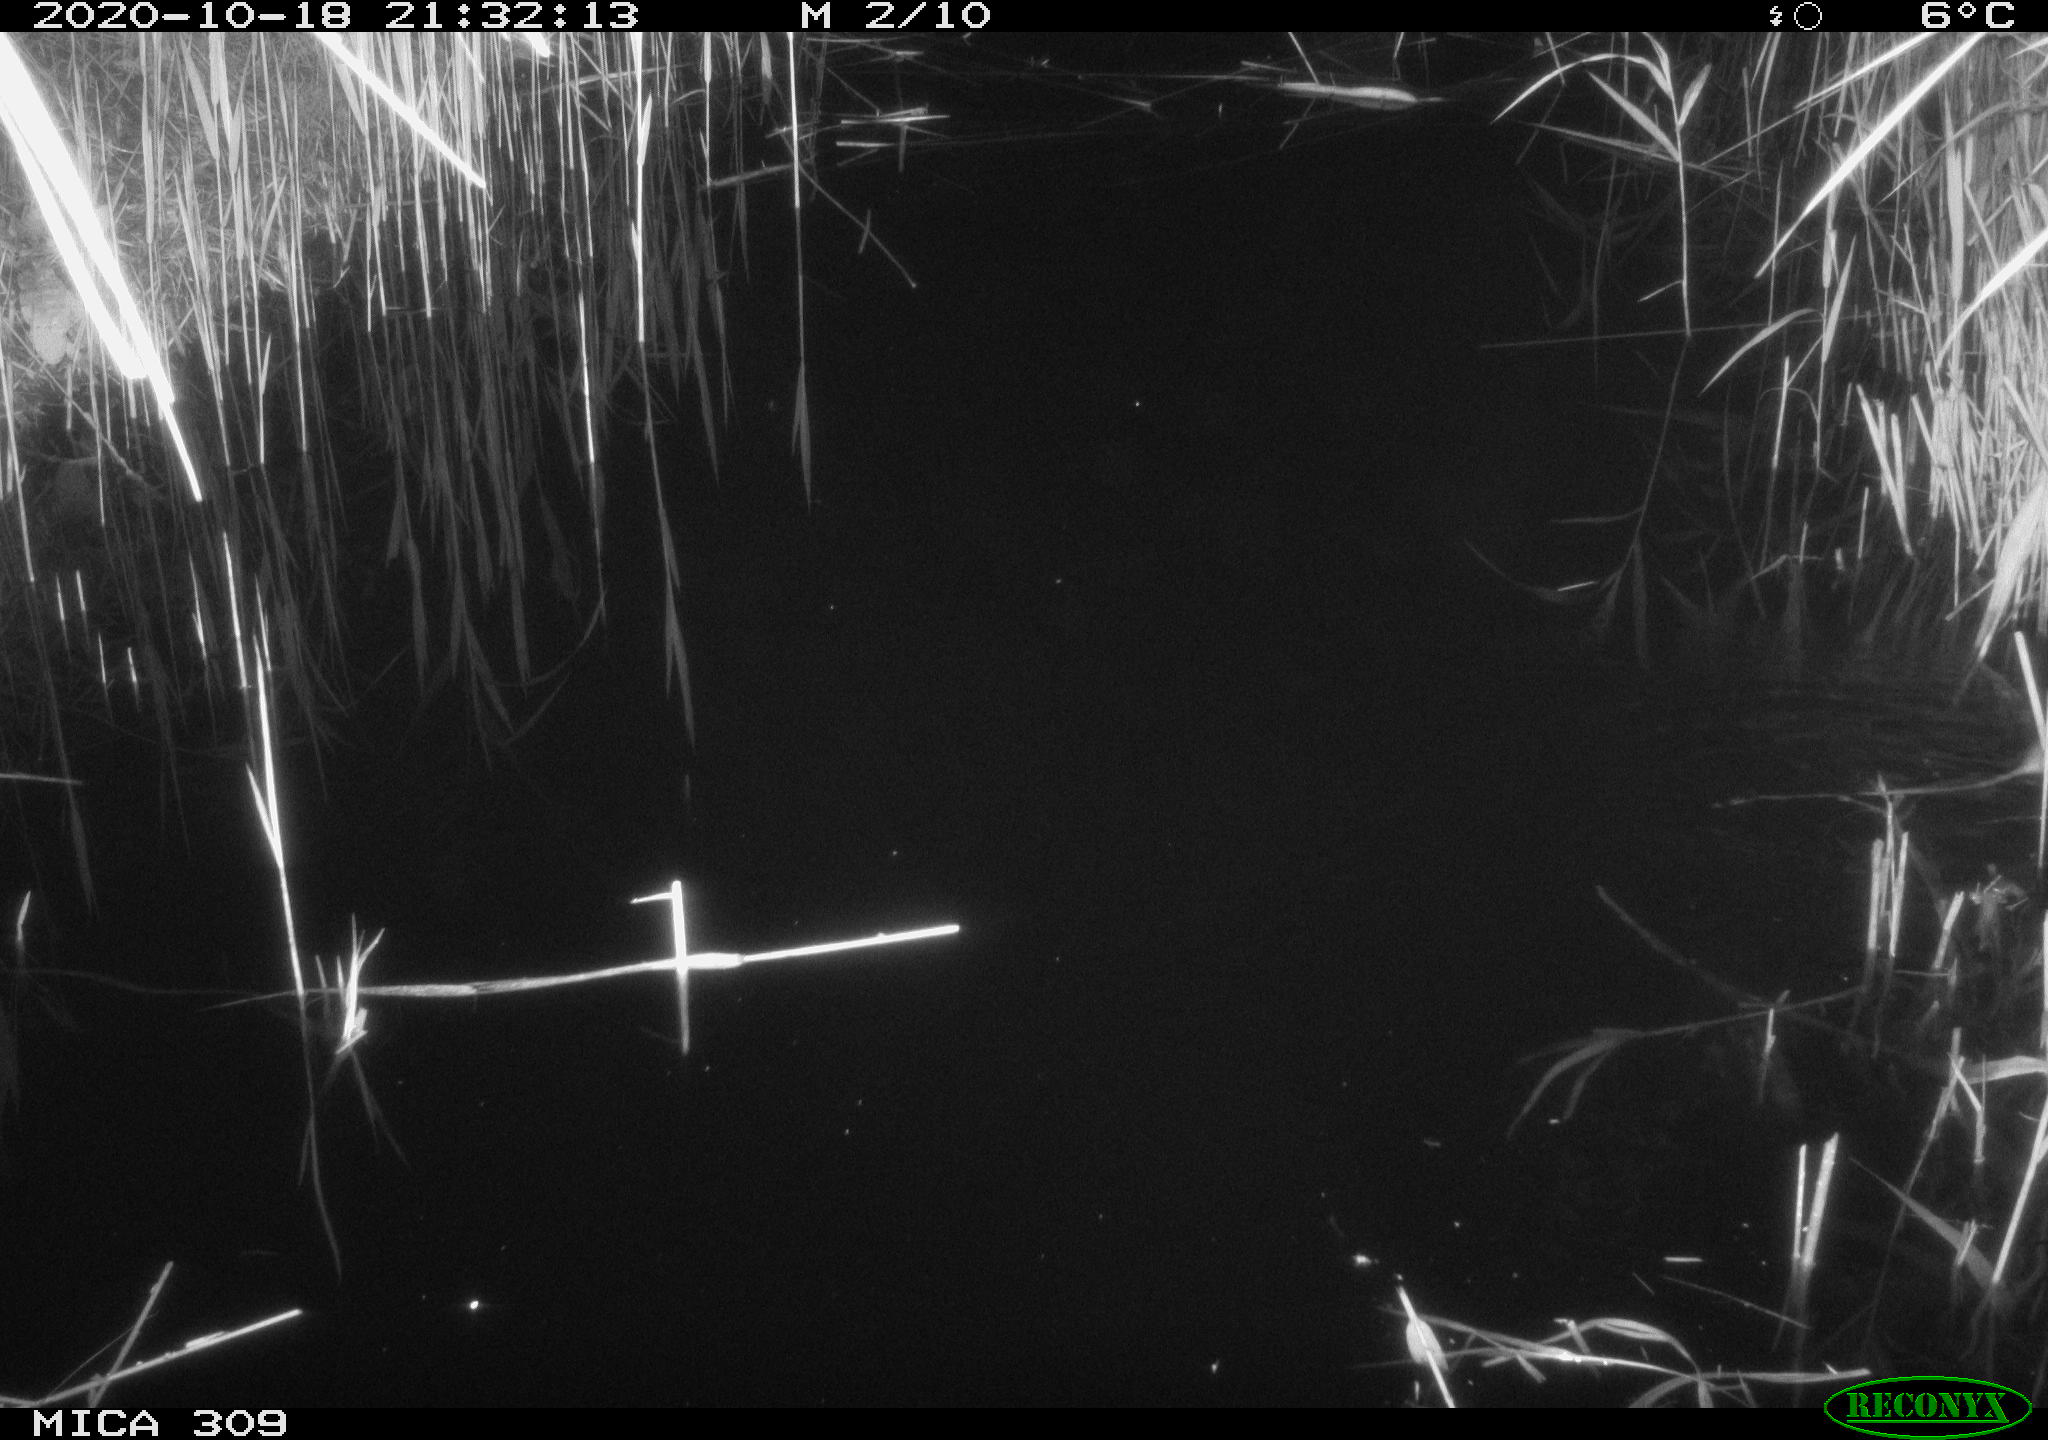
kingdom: Animalia
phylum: Chordata
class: Mammalia
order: Rodentia
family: Muridae
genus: Rattus
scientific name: Rattus norvegicus
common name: Brown rat
